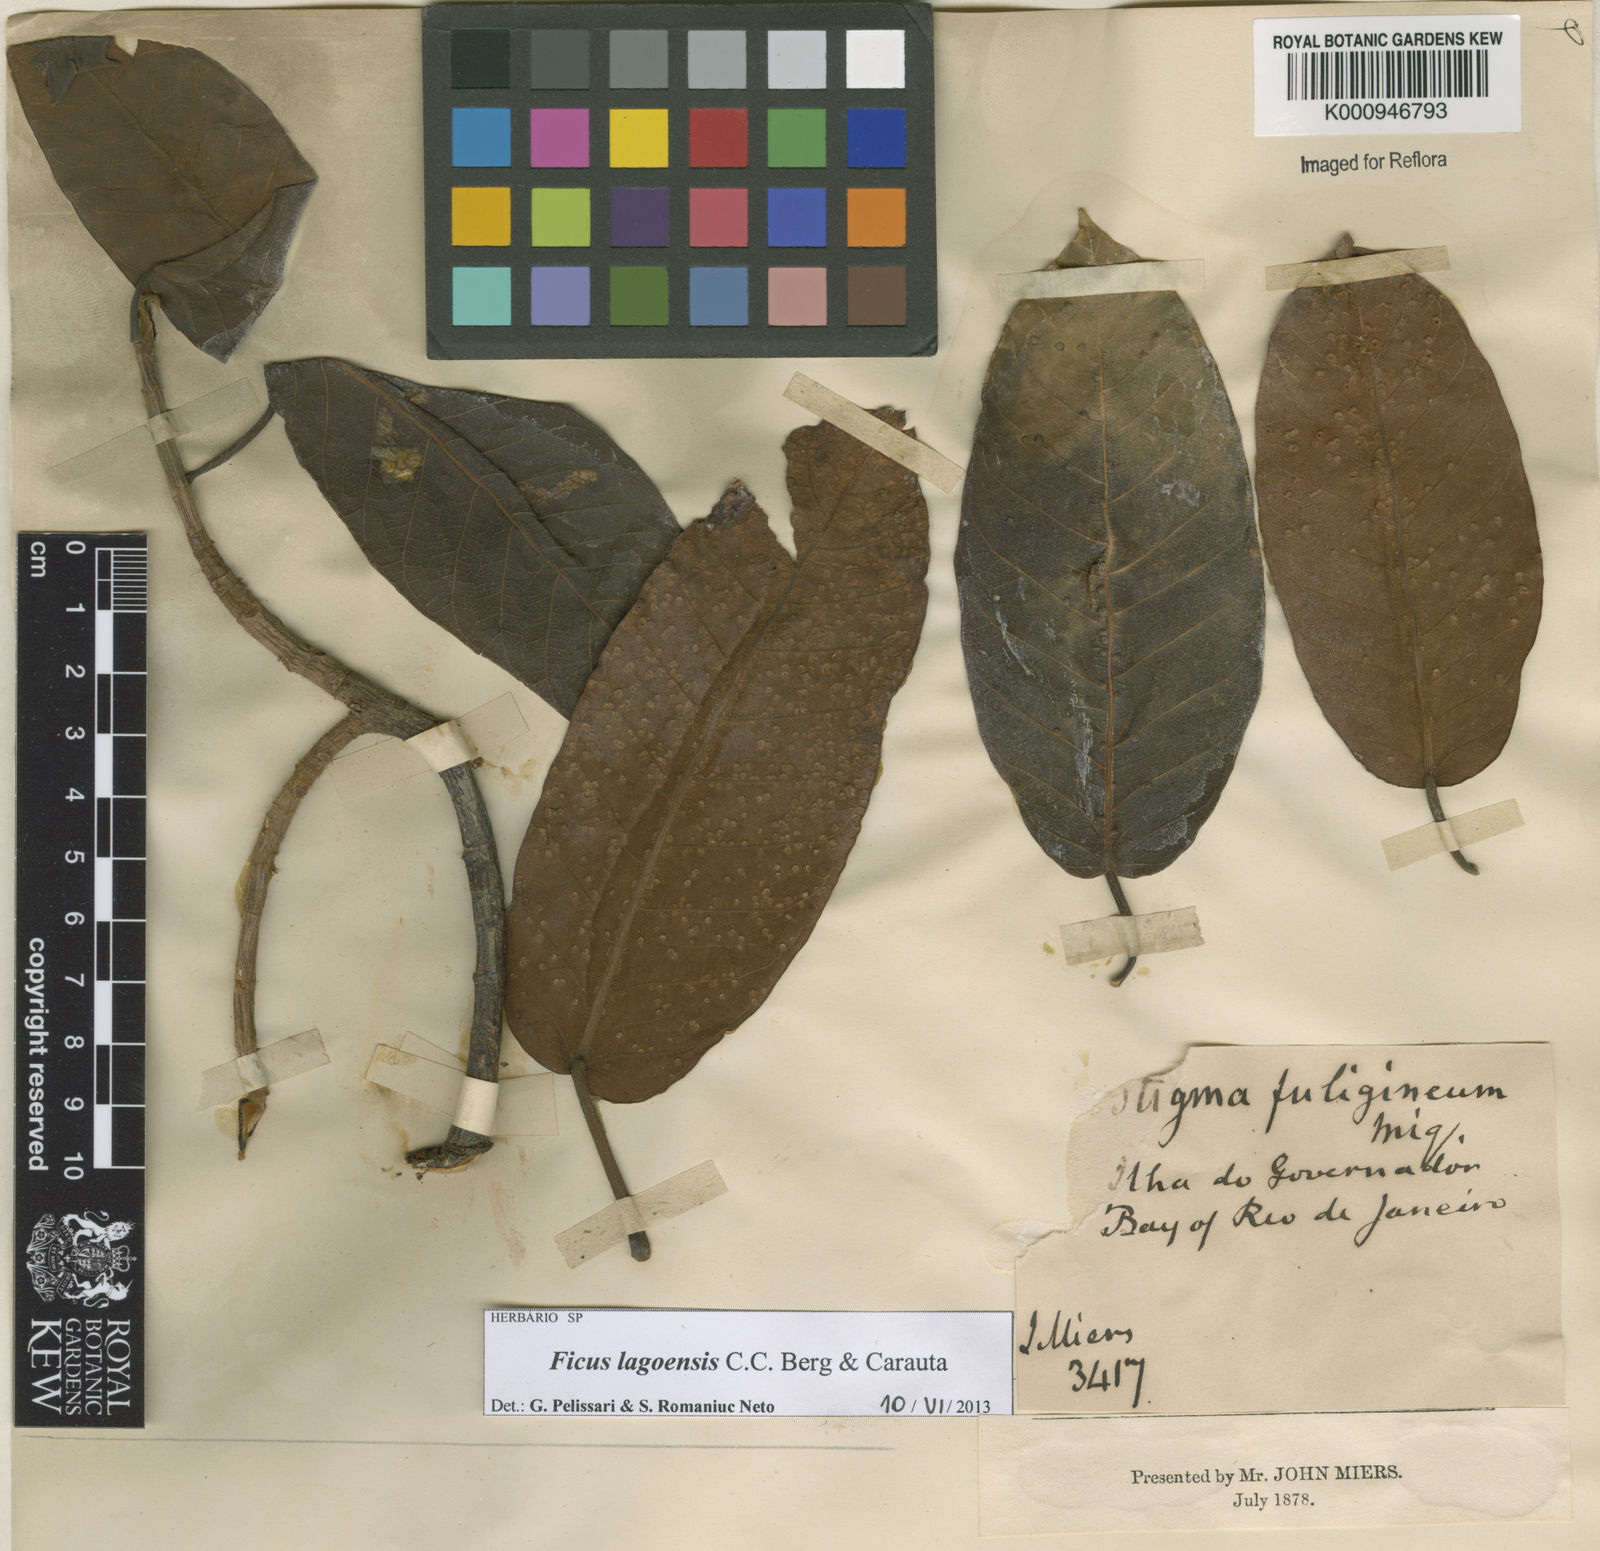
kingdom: Plantae
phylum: Tracheophyta
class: Magnoliopsida
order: Rosales
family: Moraceae
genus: Ficus
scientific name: Ficus lagoensis
